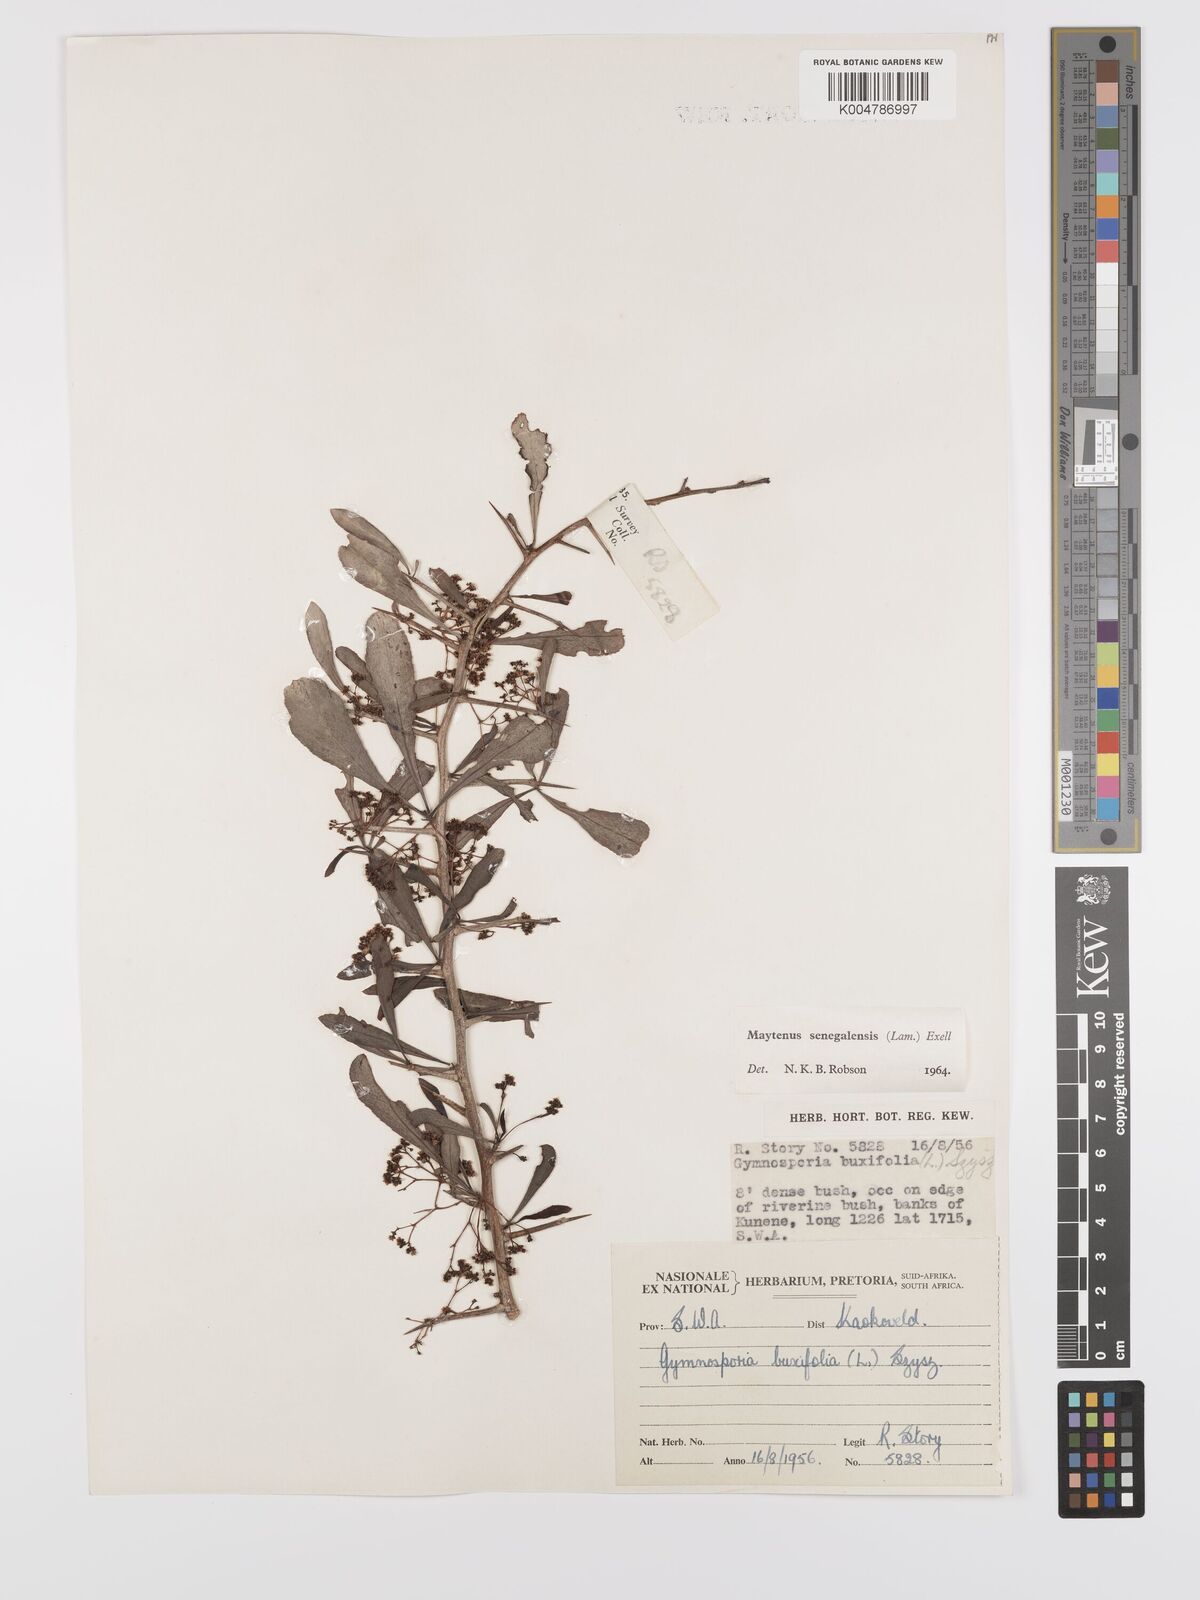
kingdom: Plantae
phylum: Tracheophyta
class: Magnoliopsida
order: Celastrales
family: Celastraceae
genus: Gymnosporia
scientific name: Gymnosporia senegalensis
